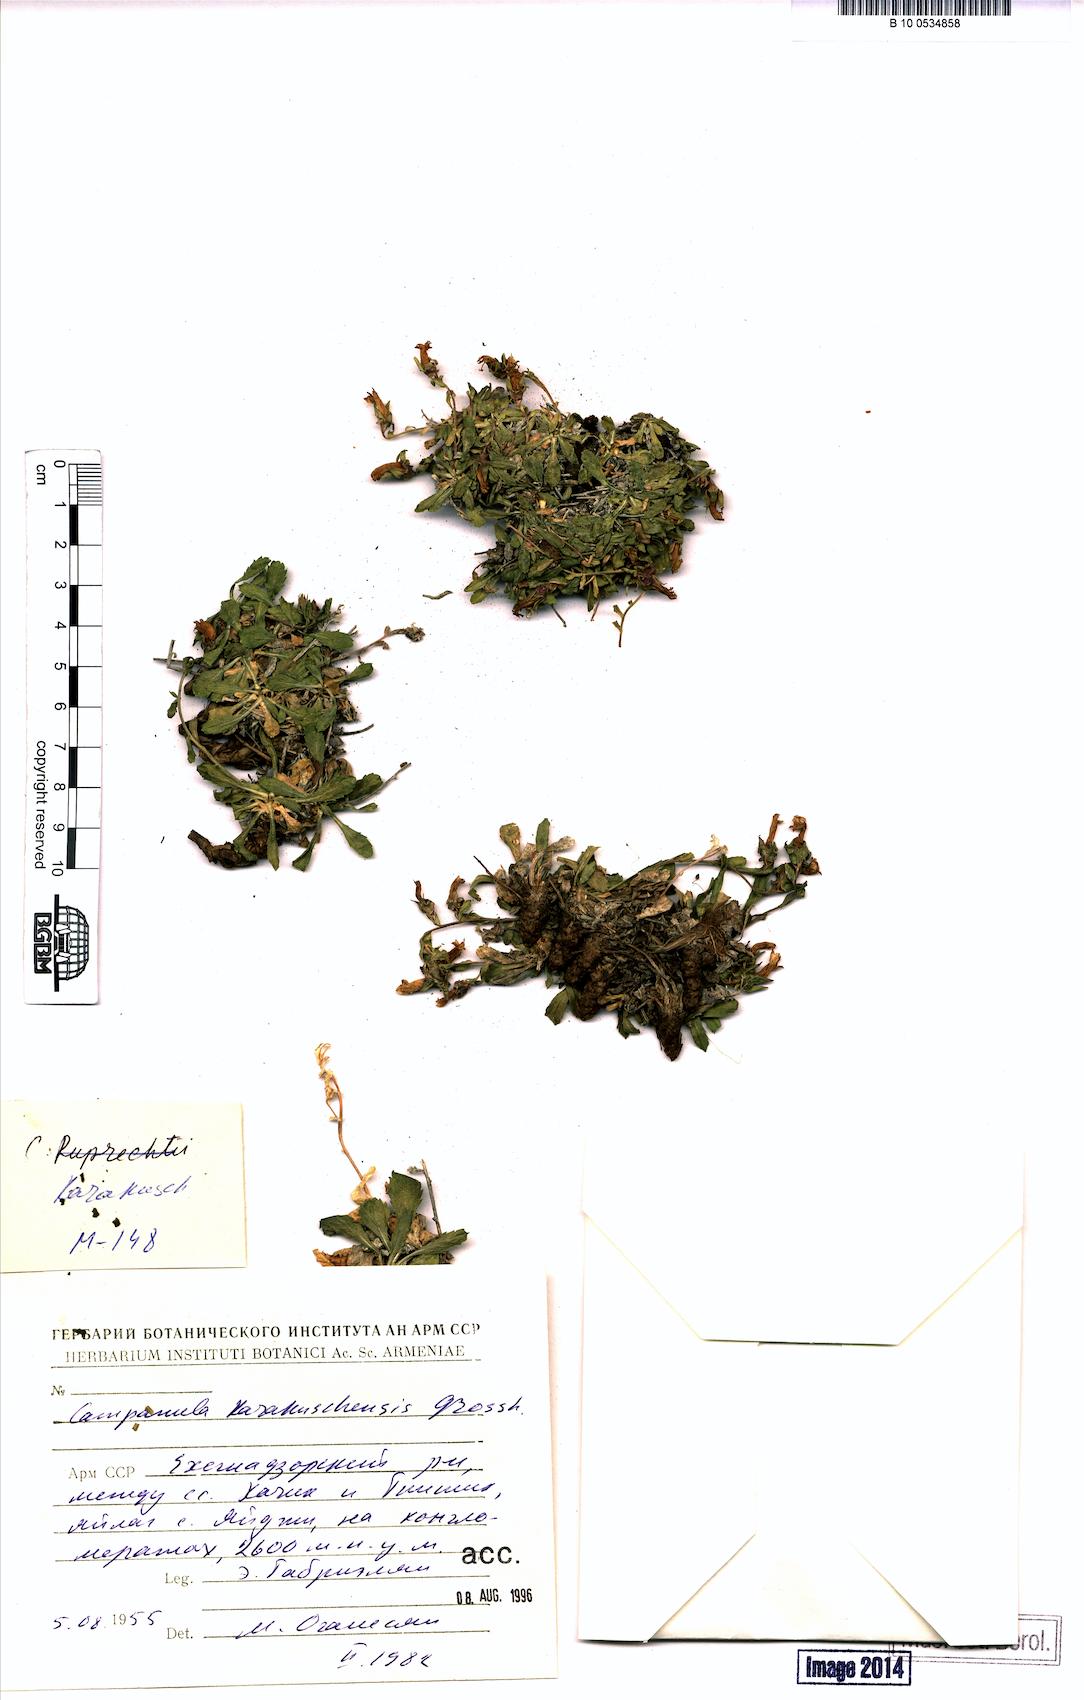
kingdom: Plantae
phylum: Tracheophyta
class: Magnoliopsida
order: Asterales
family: Campanulaceae
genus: Campanula
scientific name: Campanula karakuschensis
